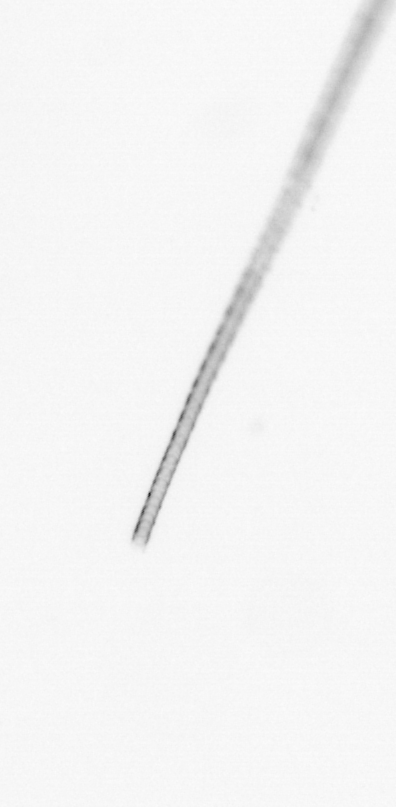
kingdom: Chromista
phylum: Ochrophyta
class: Bacillariophyceae
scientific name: Bacillariophyceae
